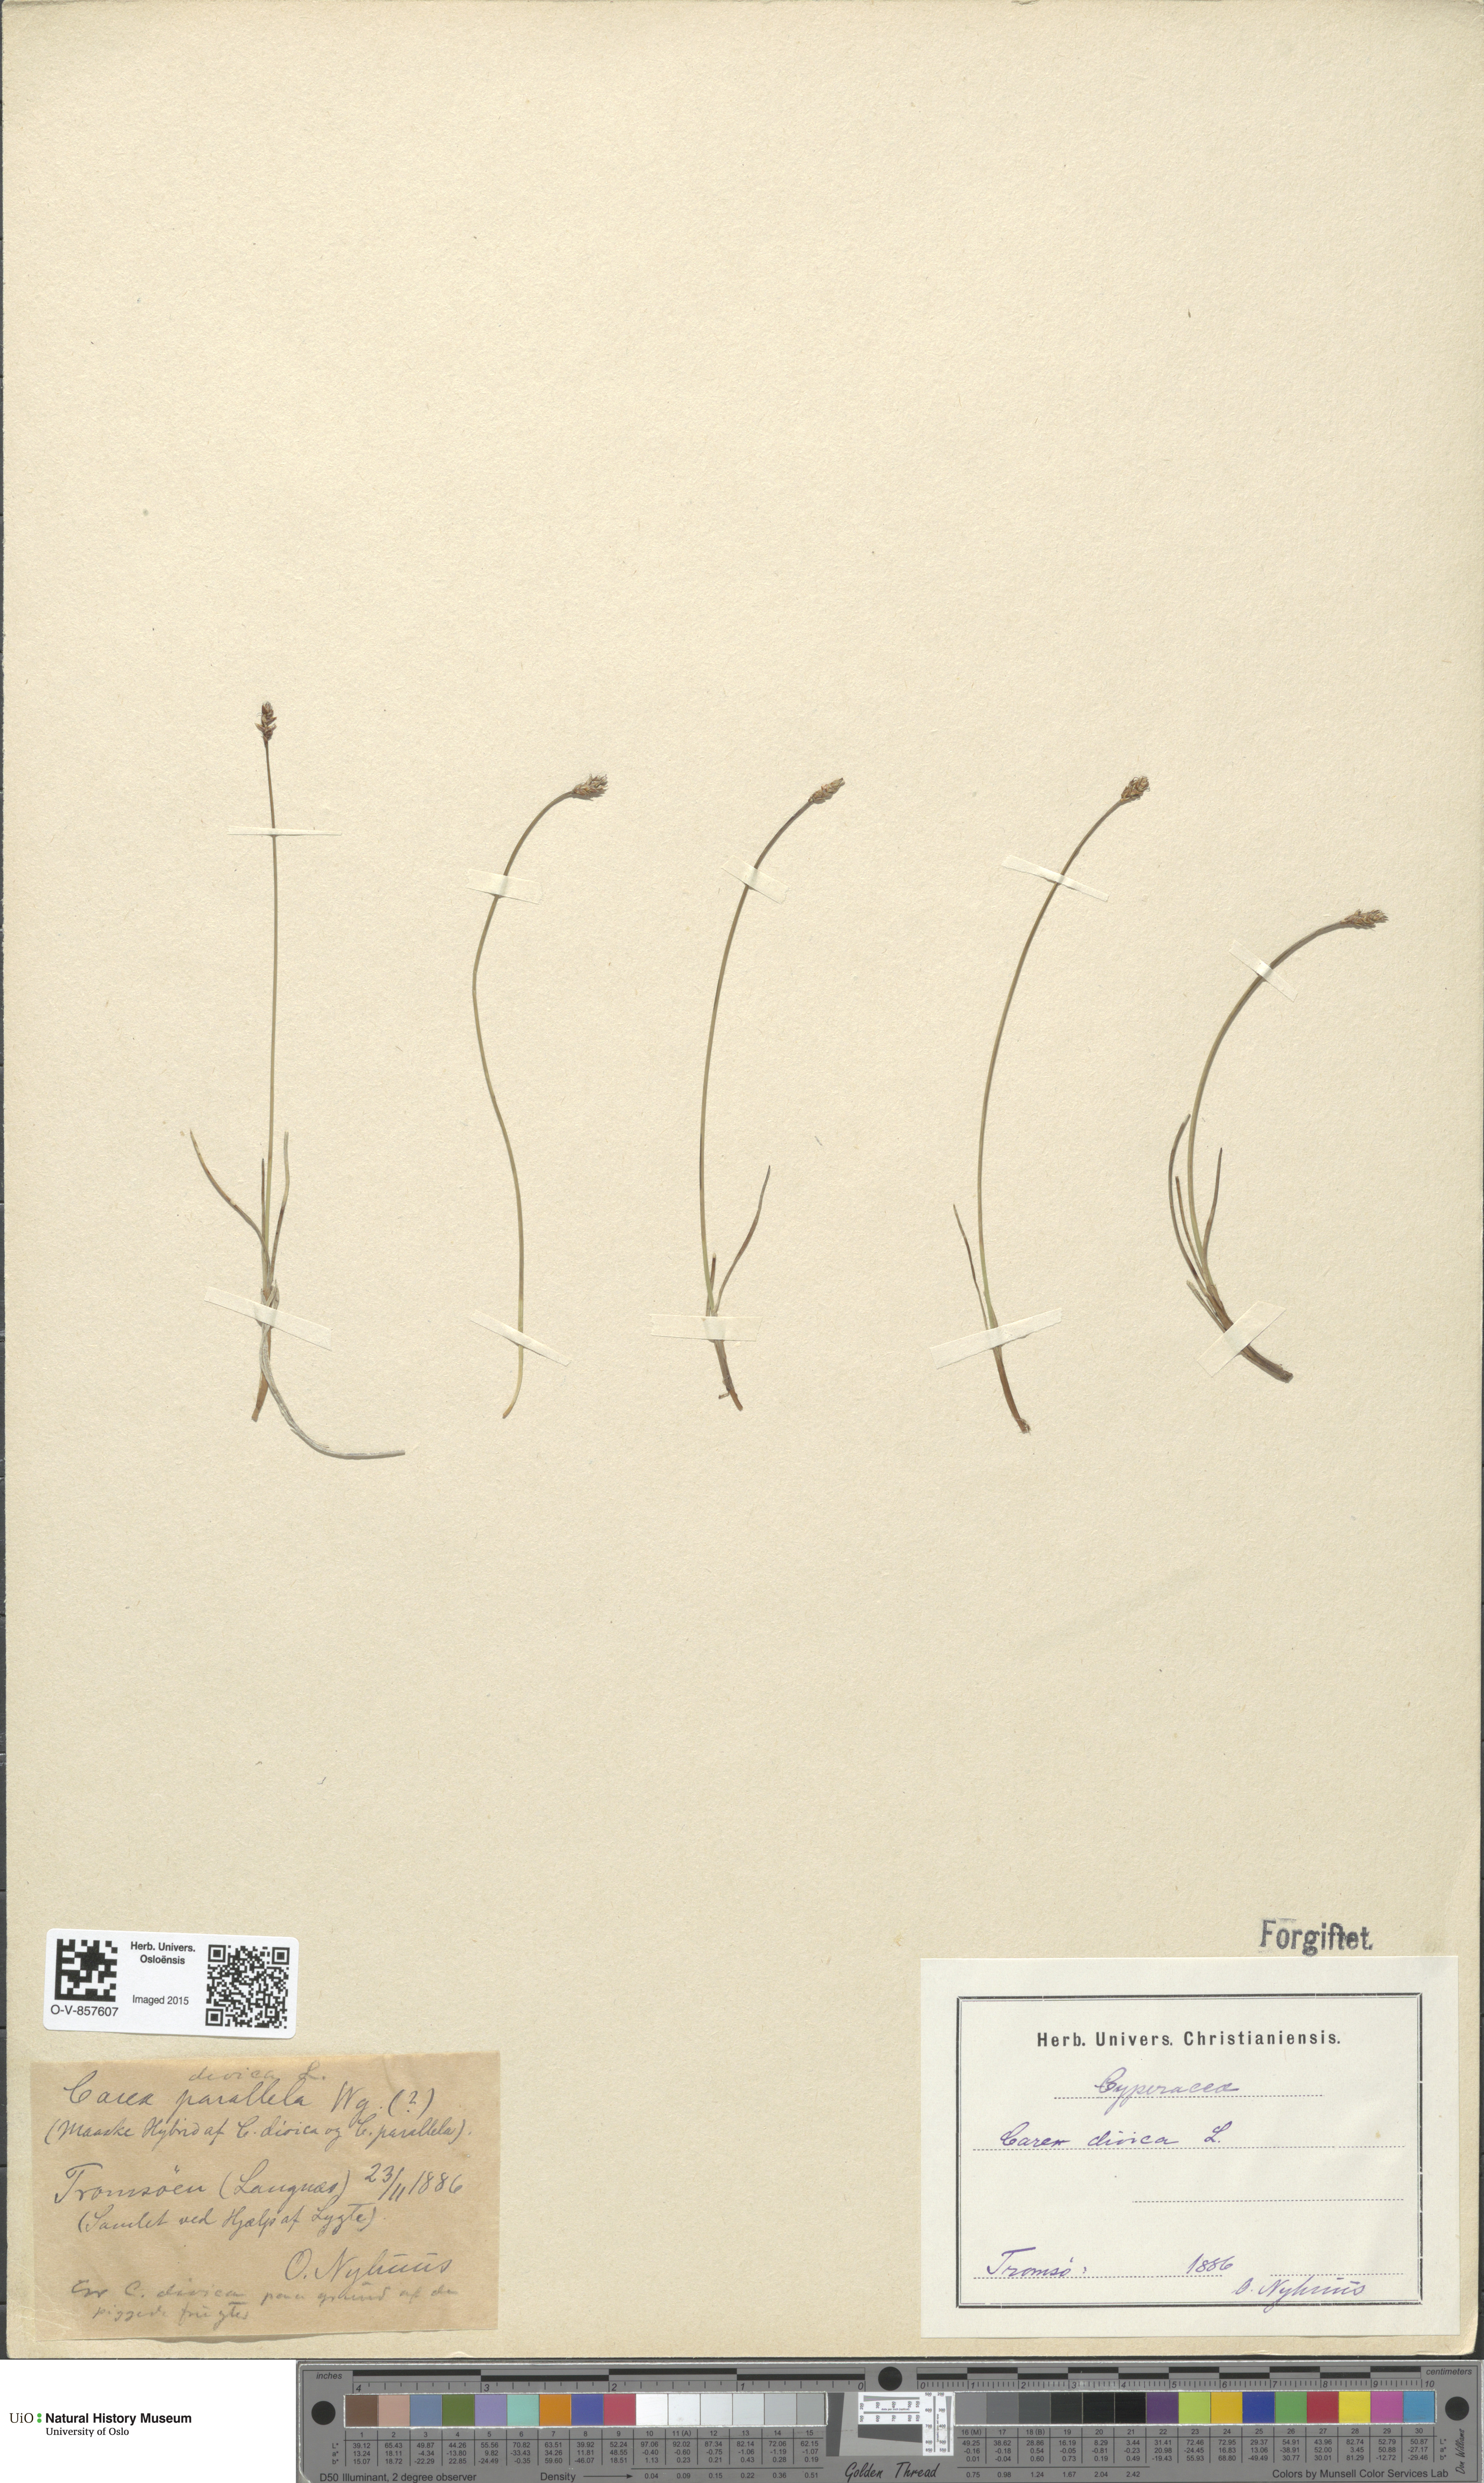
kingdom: Plantae
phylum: Tracheophyta
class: Liliopsida
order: Poales
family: Cyperaceae
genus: Carex
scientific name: Carex dioica
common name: Dioecious sedge
